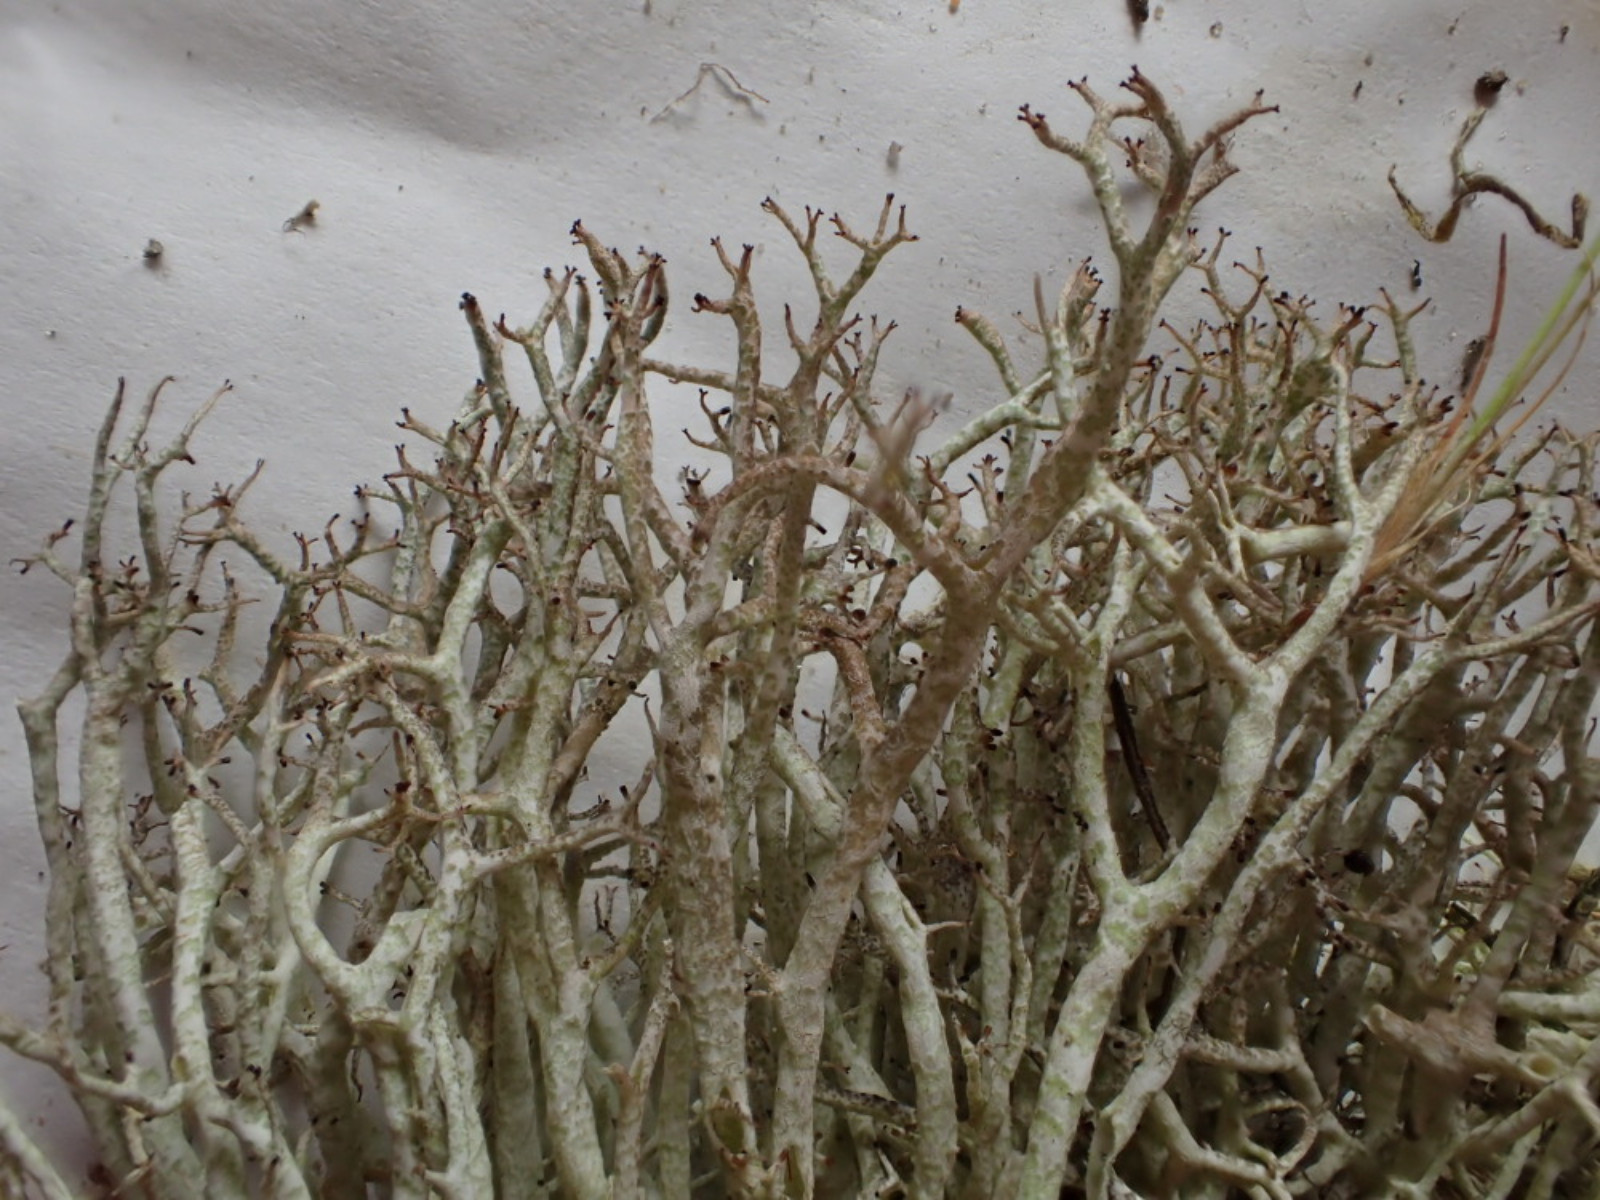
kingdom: Fungi
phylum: Ascomycota
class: Lecanoromycetes
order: Lecanorales
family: Cladoniaceae
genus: Cladonia
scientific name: Cladonia rangiformis
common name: spættet bægerlav
